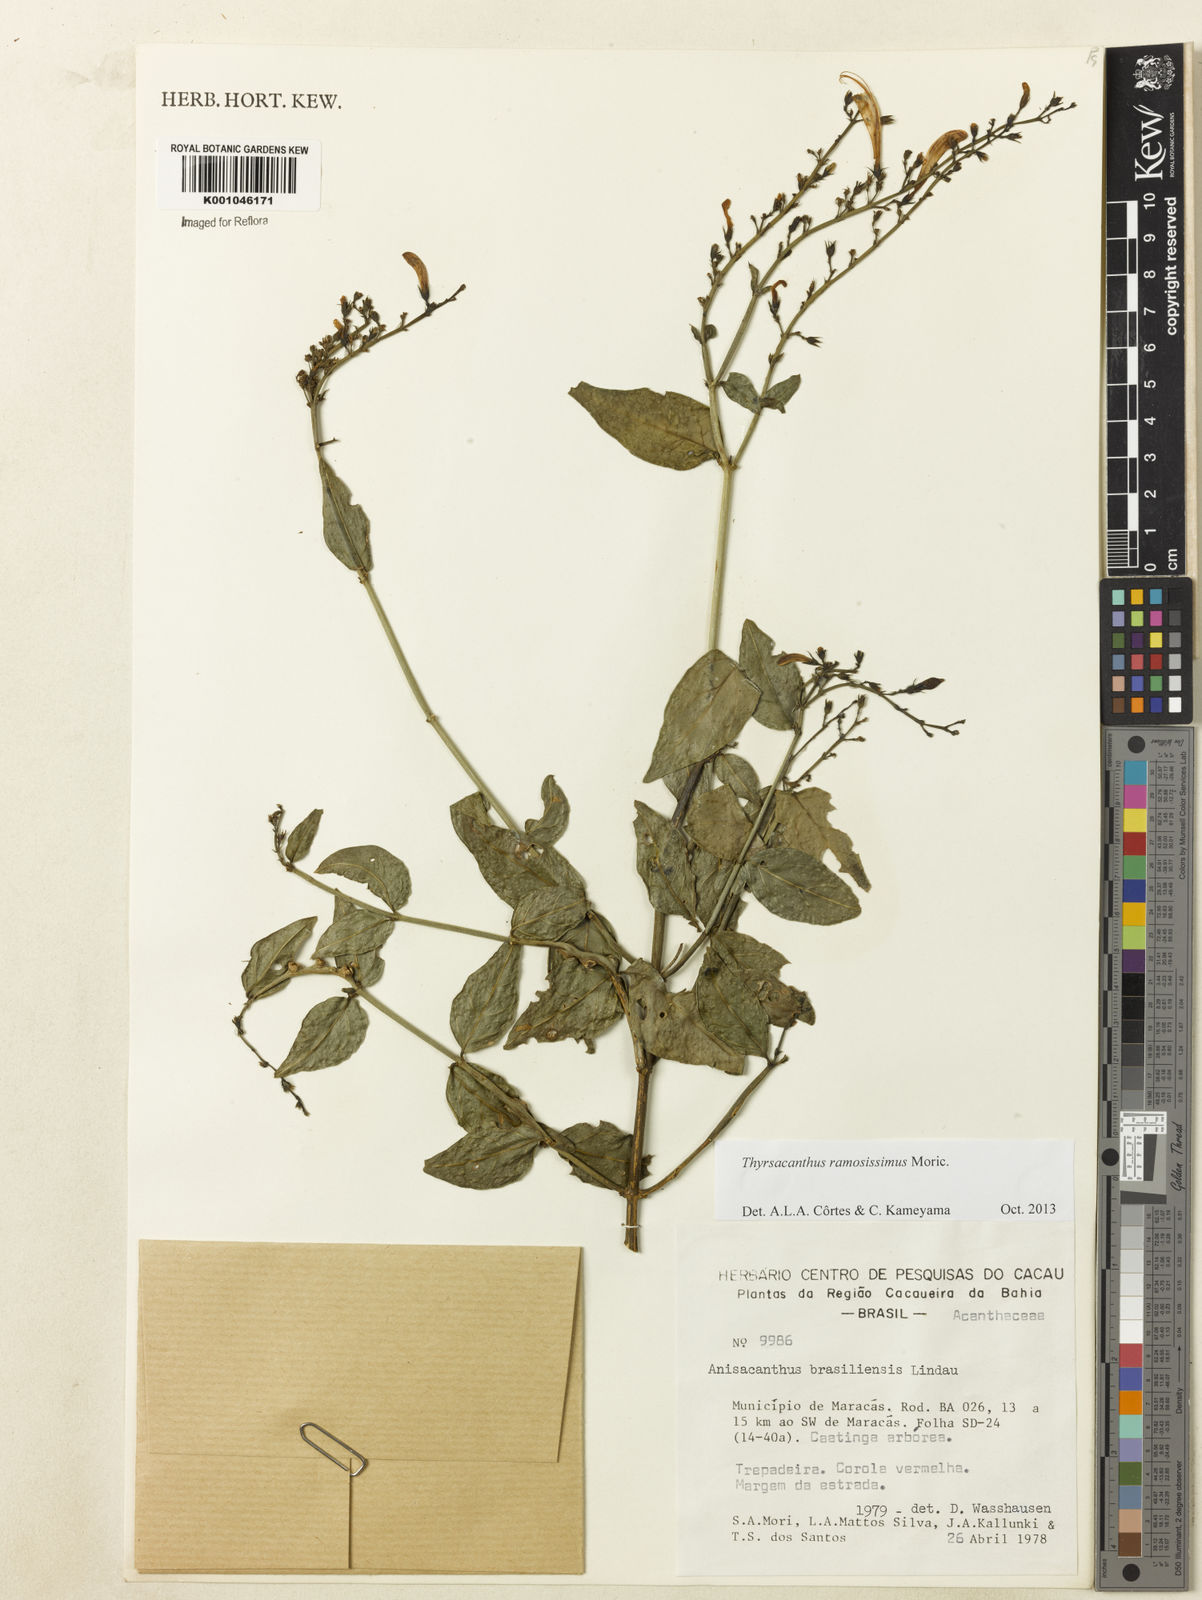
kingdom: Plantae
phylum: Tracheophyta
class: Magnoliopsida
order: Lamiales
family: Acanthaceae
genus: Thyrsacanthus
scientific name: Thyrsacanthus ramosissimus
